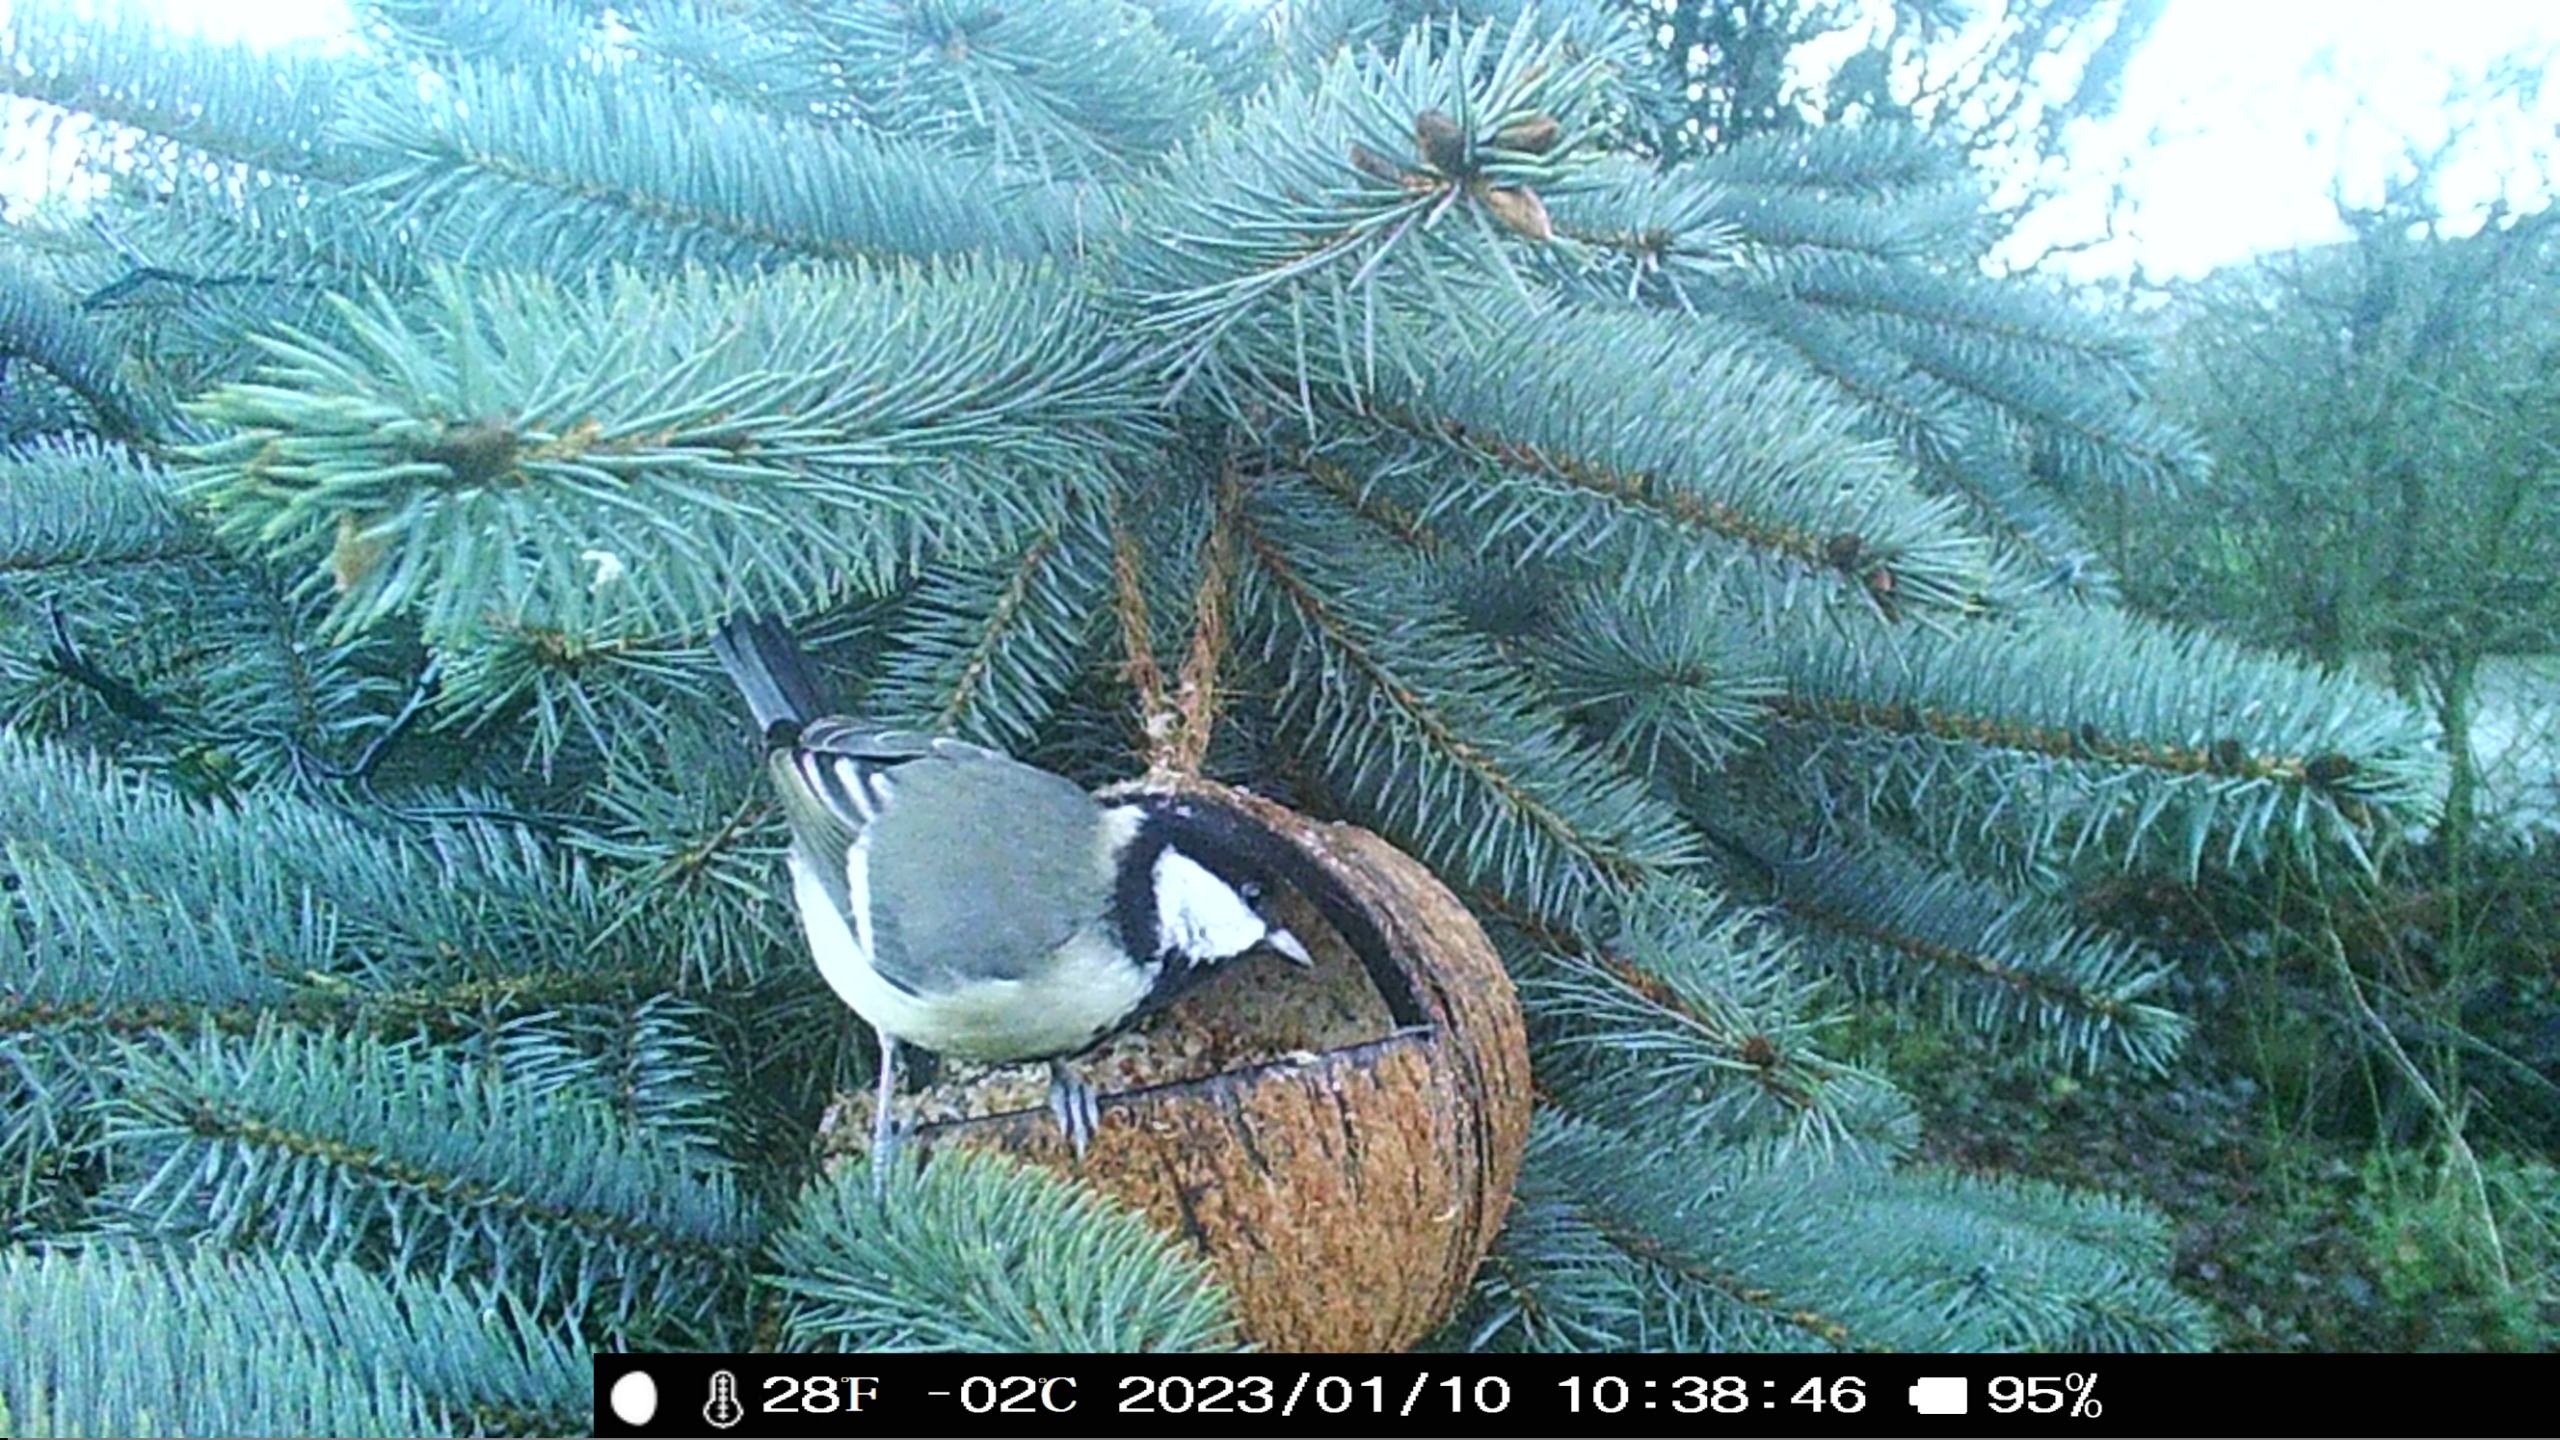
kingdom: Animalia
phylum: Chordata
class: Aves
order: Passeriformes
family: Paridae
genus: Parus
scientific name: Parus major
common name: Musvit
